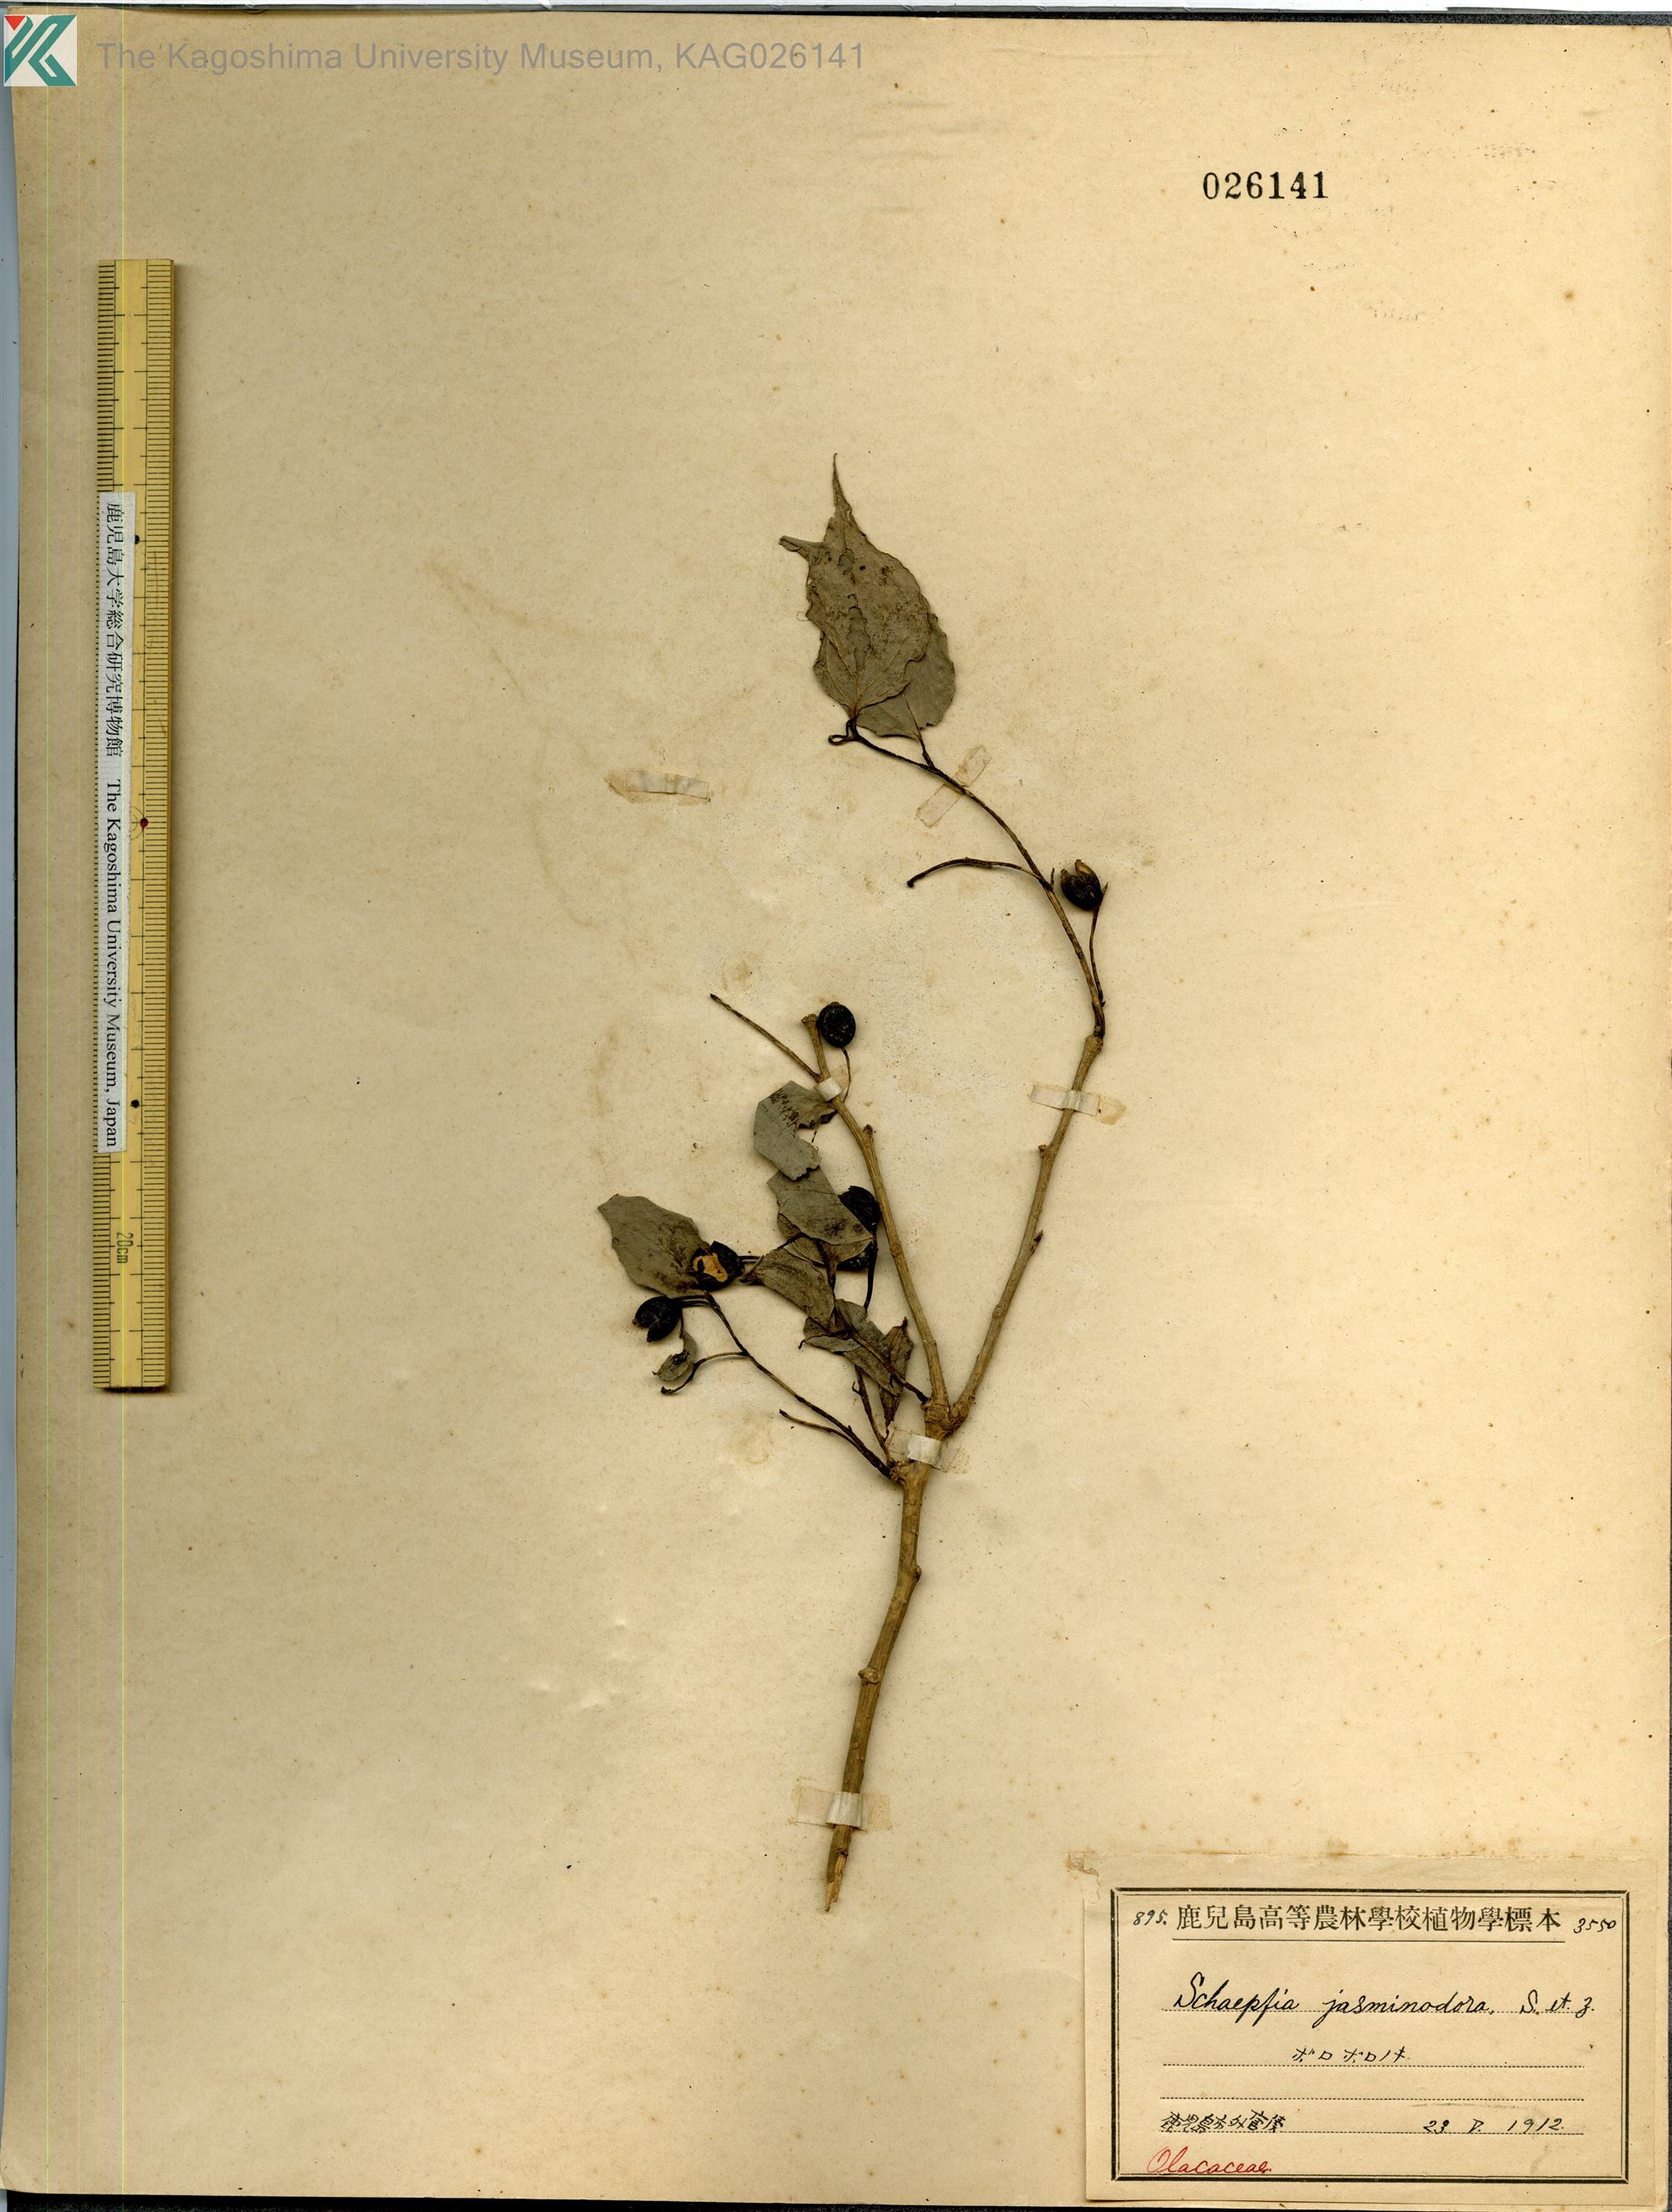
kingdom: Plantae
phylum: Tracheophyta
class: Magnoliopsida
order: Santalales
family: Schoepfiaceae
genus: Schoepfia
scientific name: Schoepfia jasminodora
